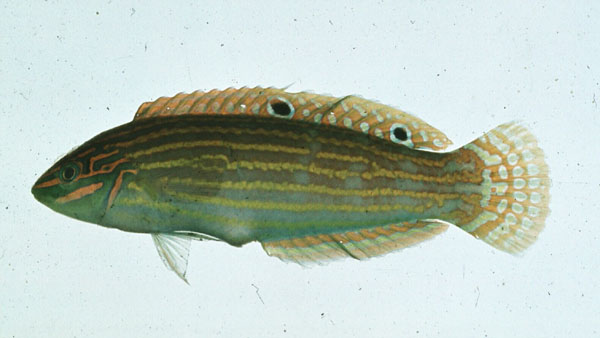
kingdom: Animalia
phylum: Chordata
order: Perciformes
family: Labridae
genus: Halichoeres
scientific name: Halichoeres cosmetus
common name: Adorned wrasse
